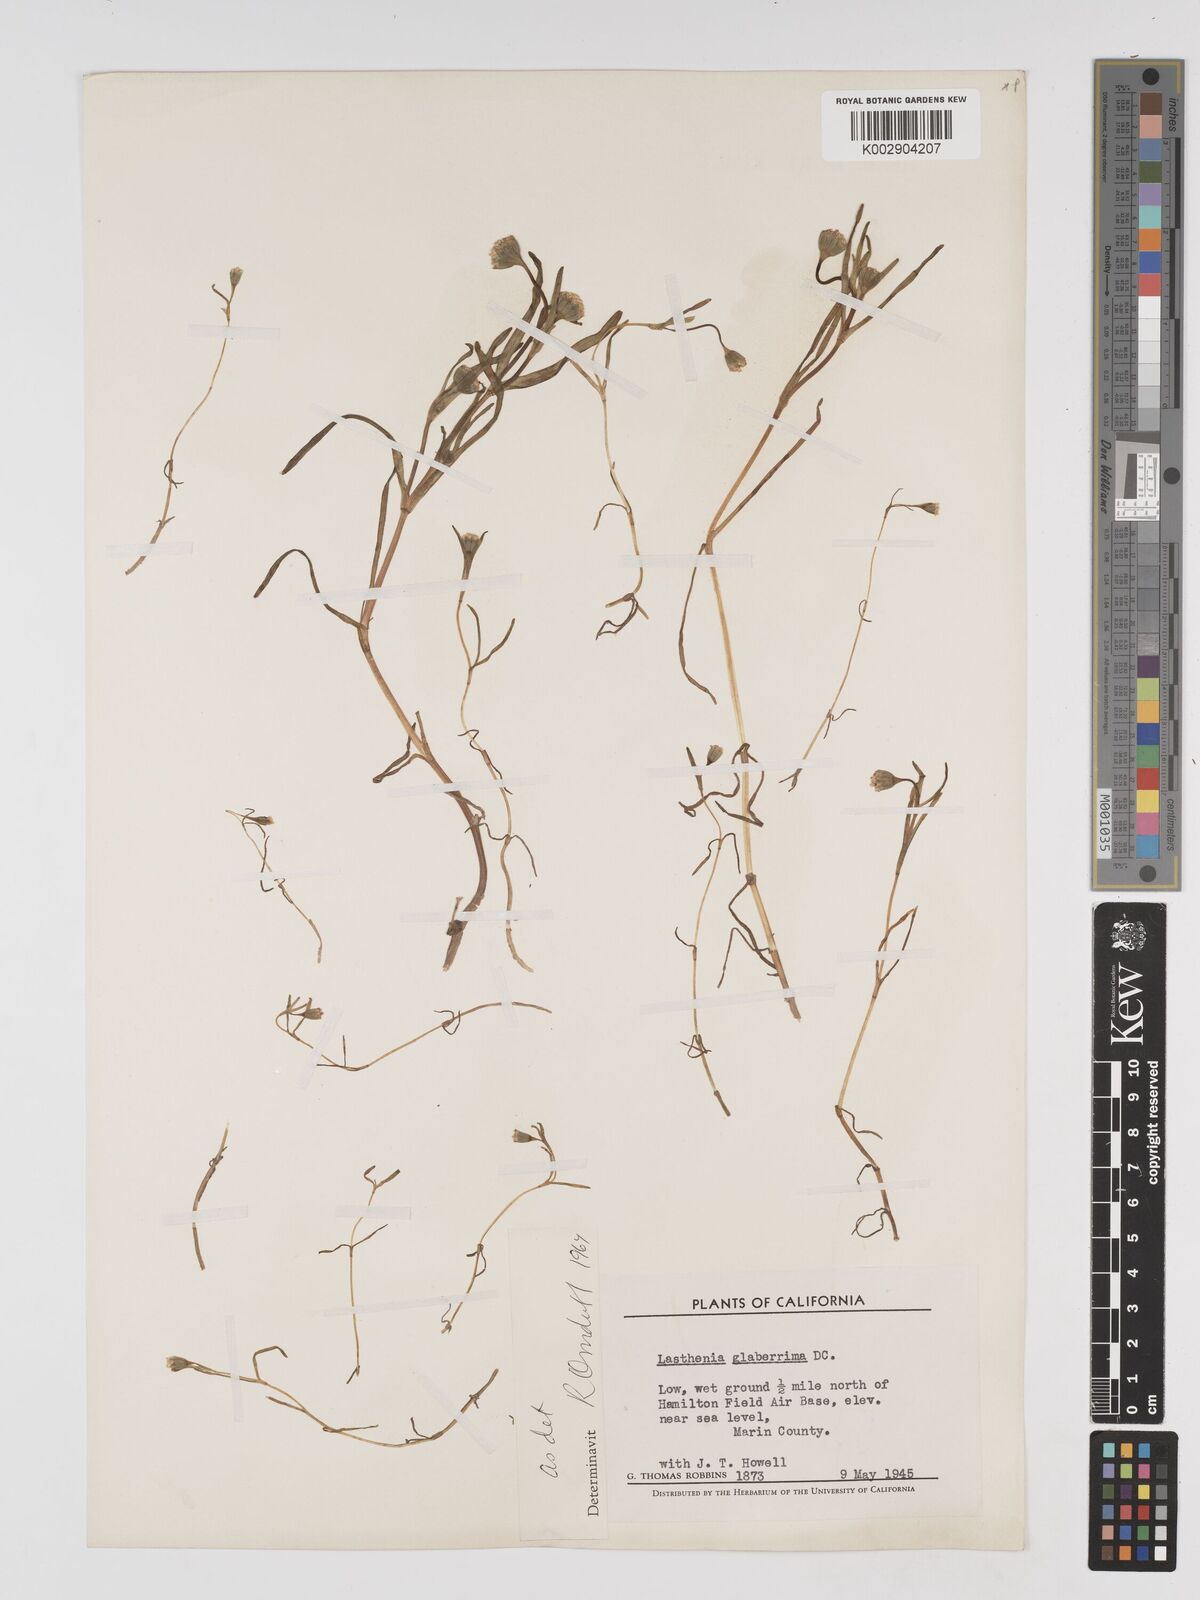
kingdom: Plantae
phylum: Tracheophyta
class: Magnoliopsida
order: Asterales
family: Asteraceae
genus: Lasthenia
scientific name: Lasthenia glaberrima
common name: Smooth goldfields
